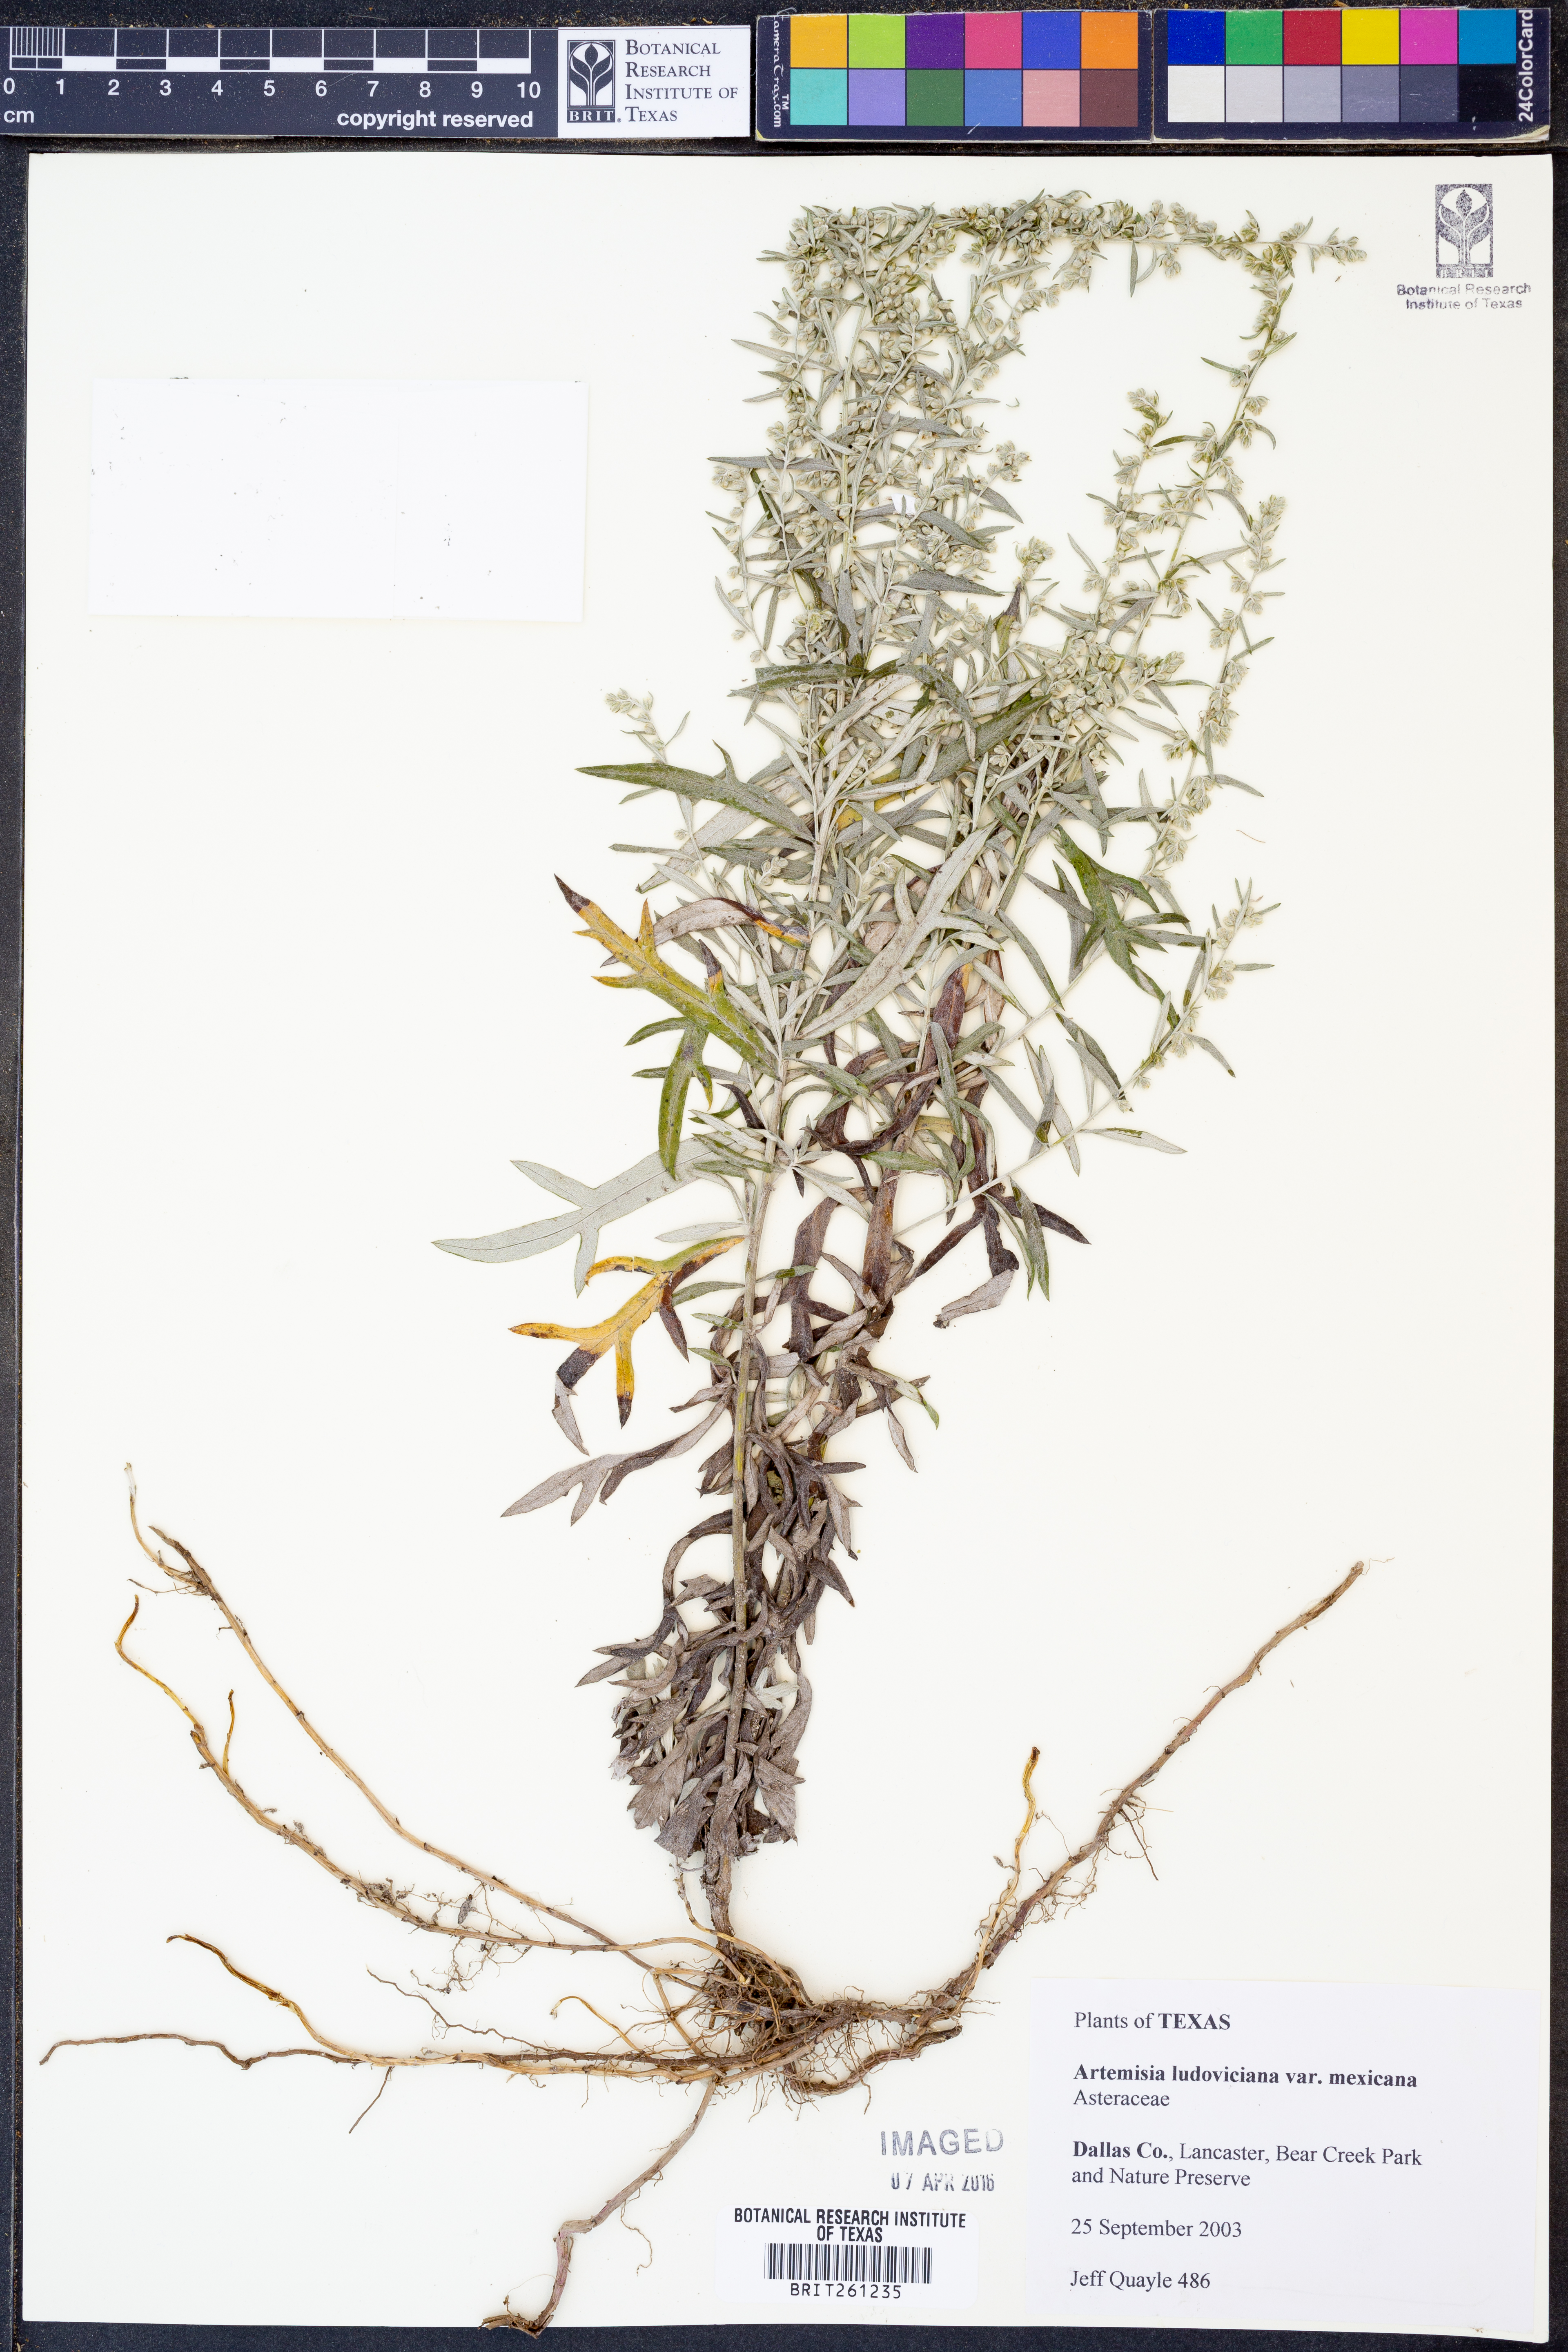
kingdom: Plantae
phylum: Tracheophyta
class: Magnoliopsida
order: Asterales
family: Asteraceae
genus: Artemisia
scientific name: Artemisia ludoviciana
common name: Western mugwort
